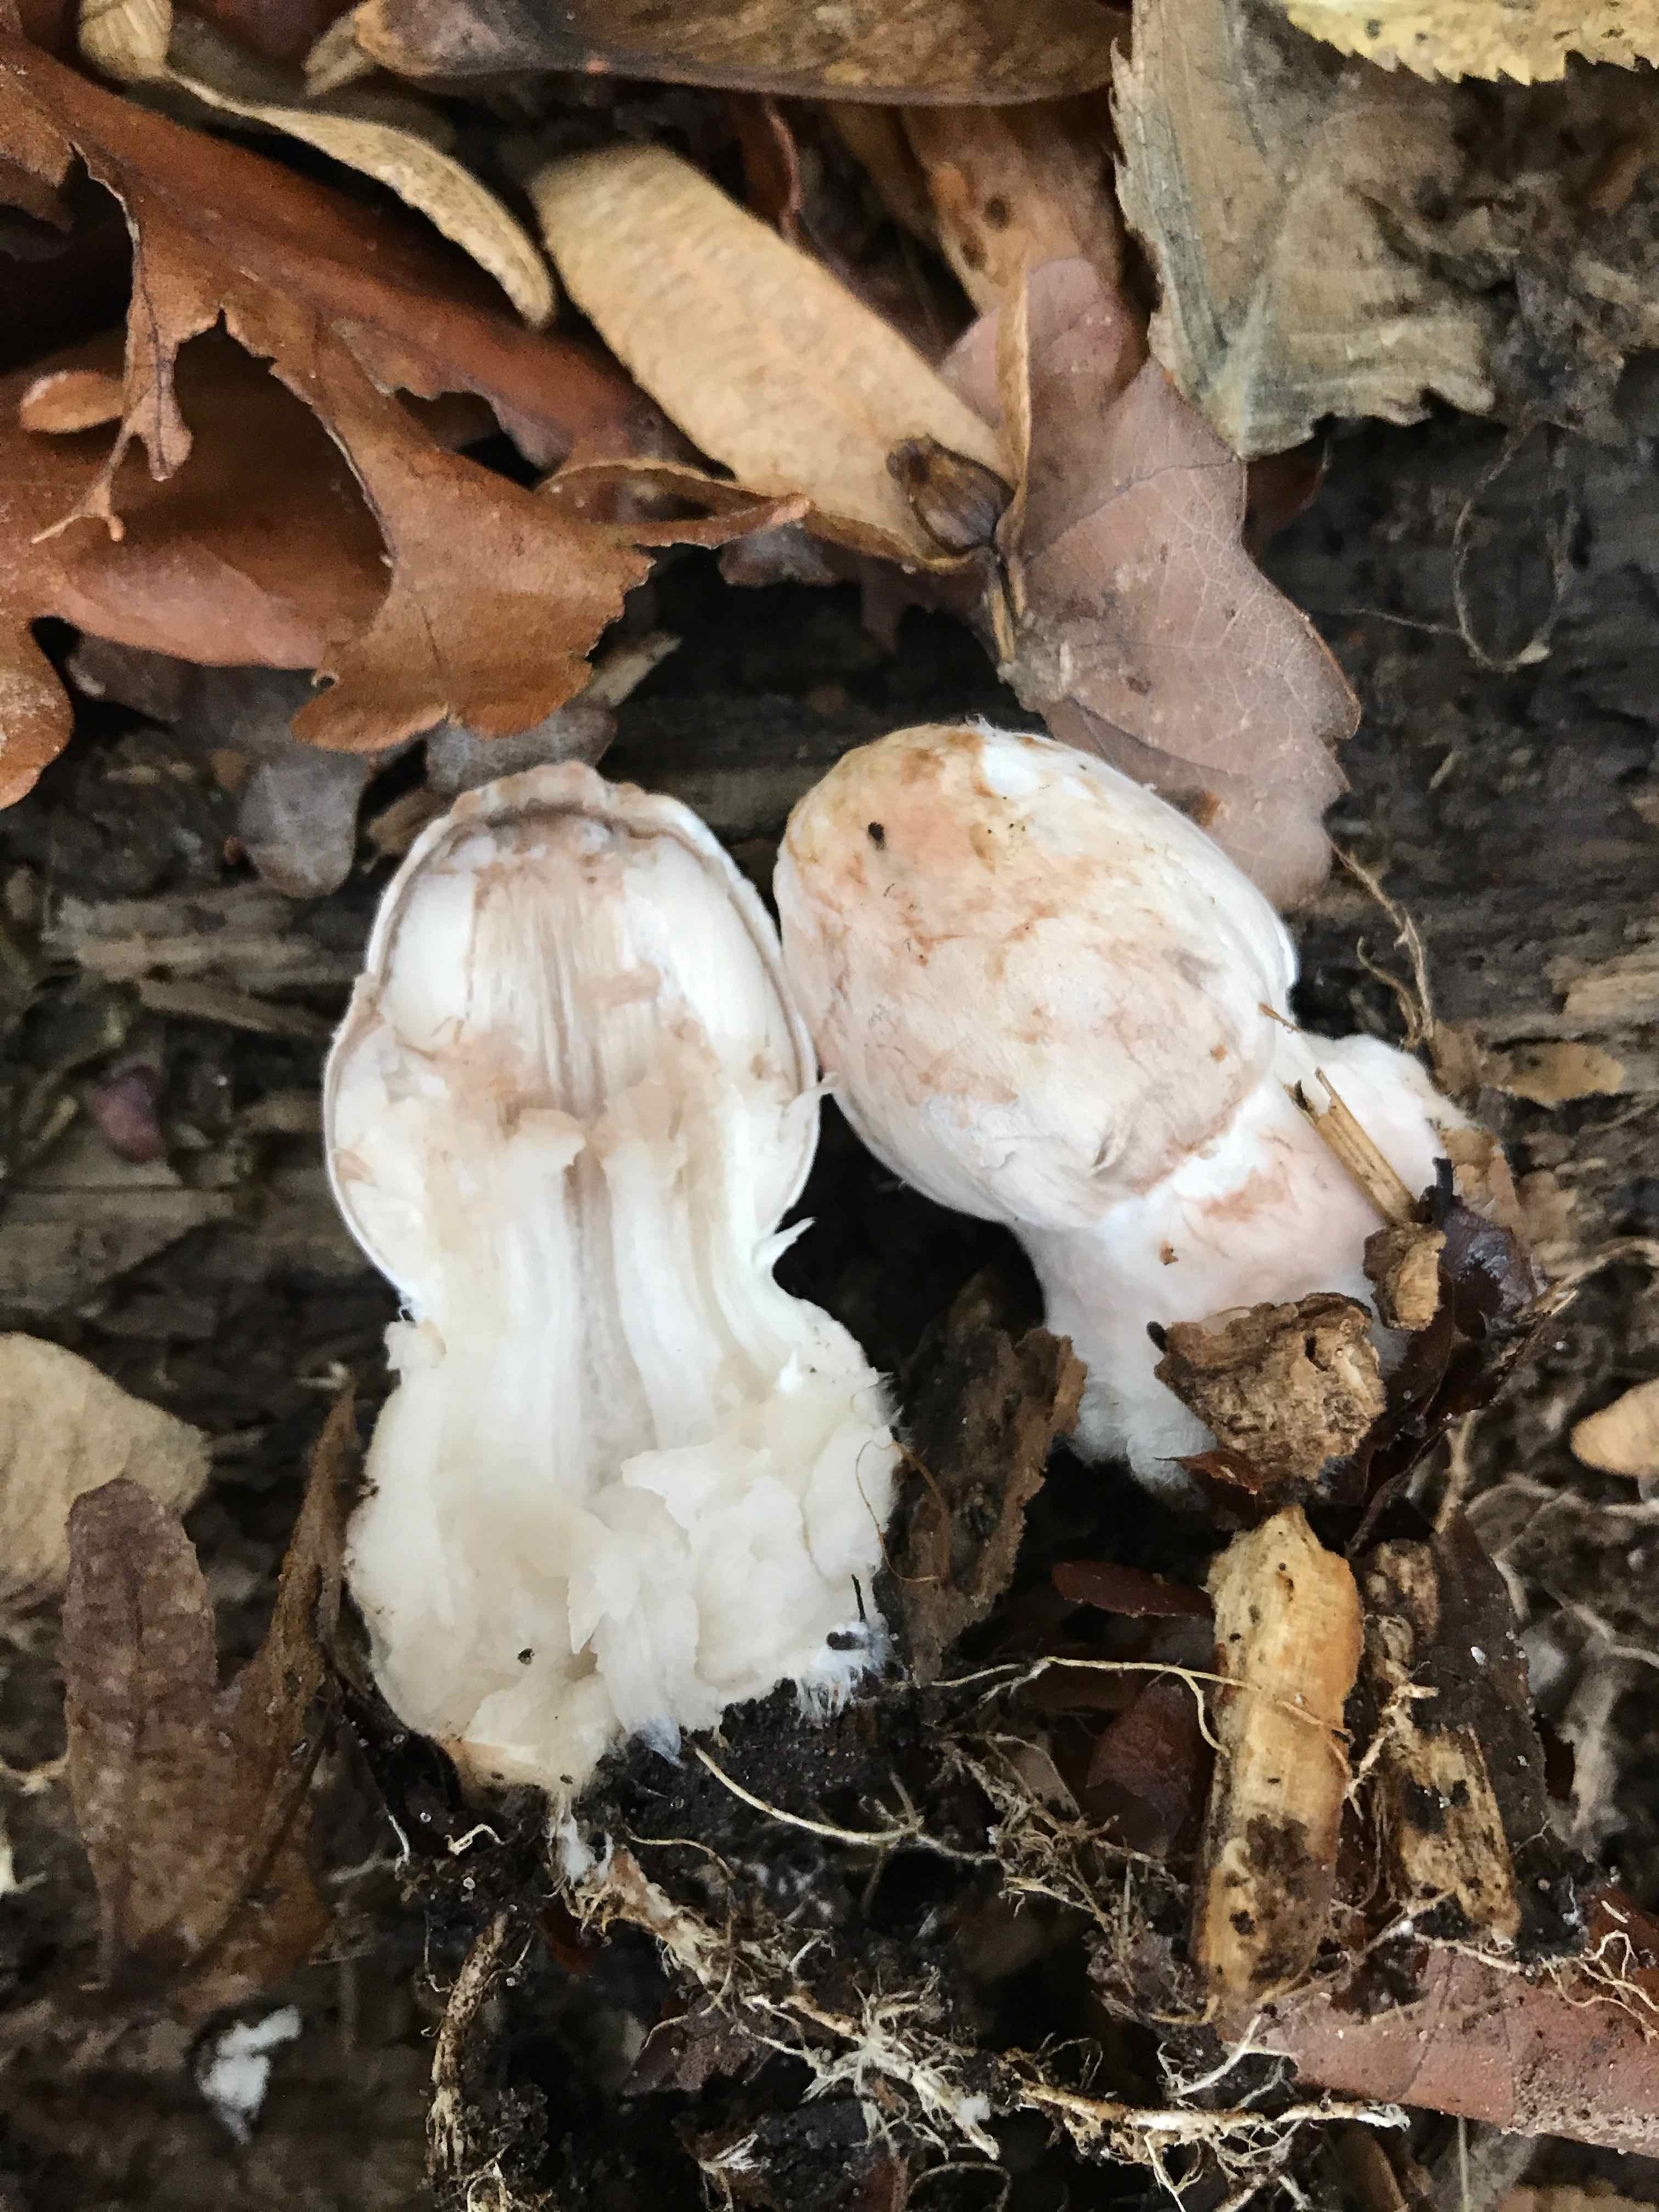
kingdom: Fungi
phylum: Basidiomycota
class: Agaricomycetes
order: Agaricales
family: Psathyrellaceae
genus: Coprinopsis
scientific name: Coprinopsis picacea
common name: skade-blækhat
